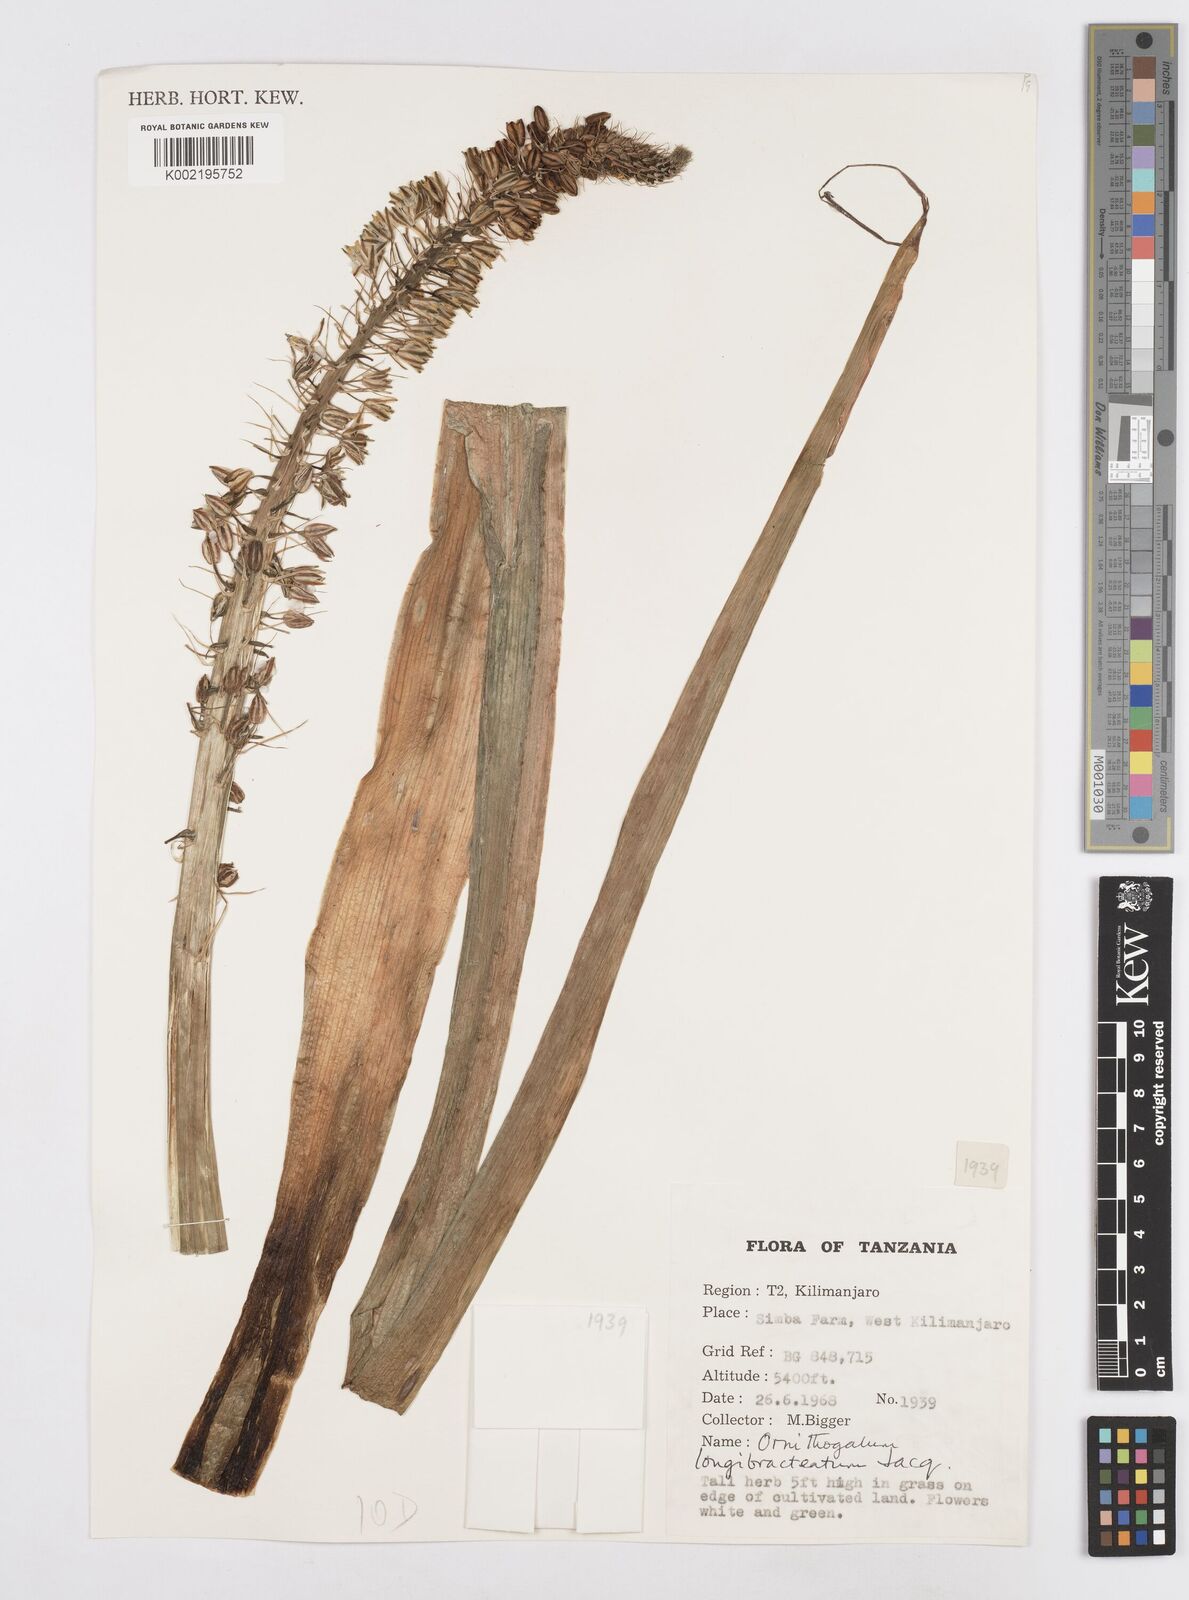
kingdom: Plantae
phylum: Tracheophyta
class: Liliopsida
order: Asparagales
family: Asparagaceae
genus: Ornithogalum
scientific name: Ornithogalum
